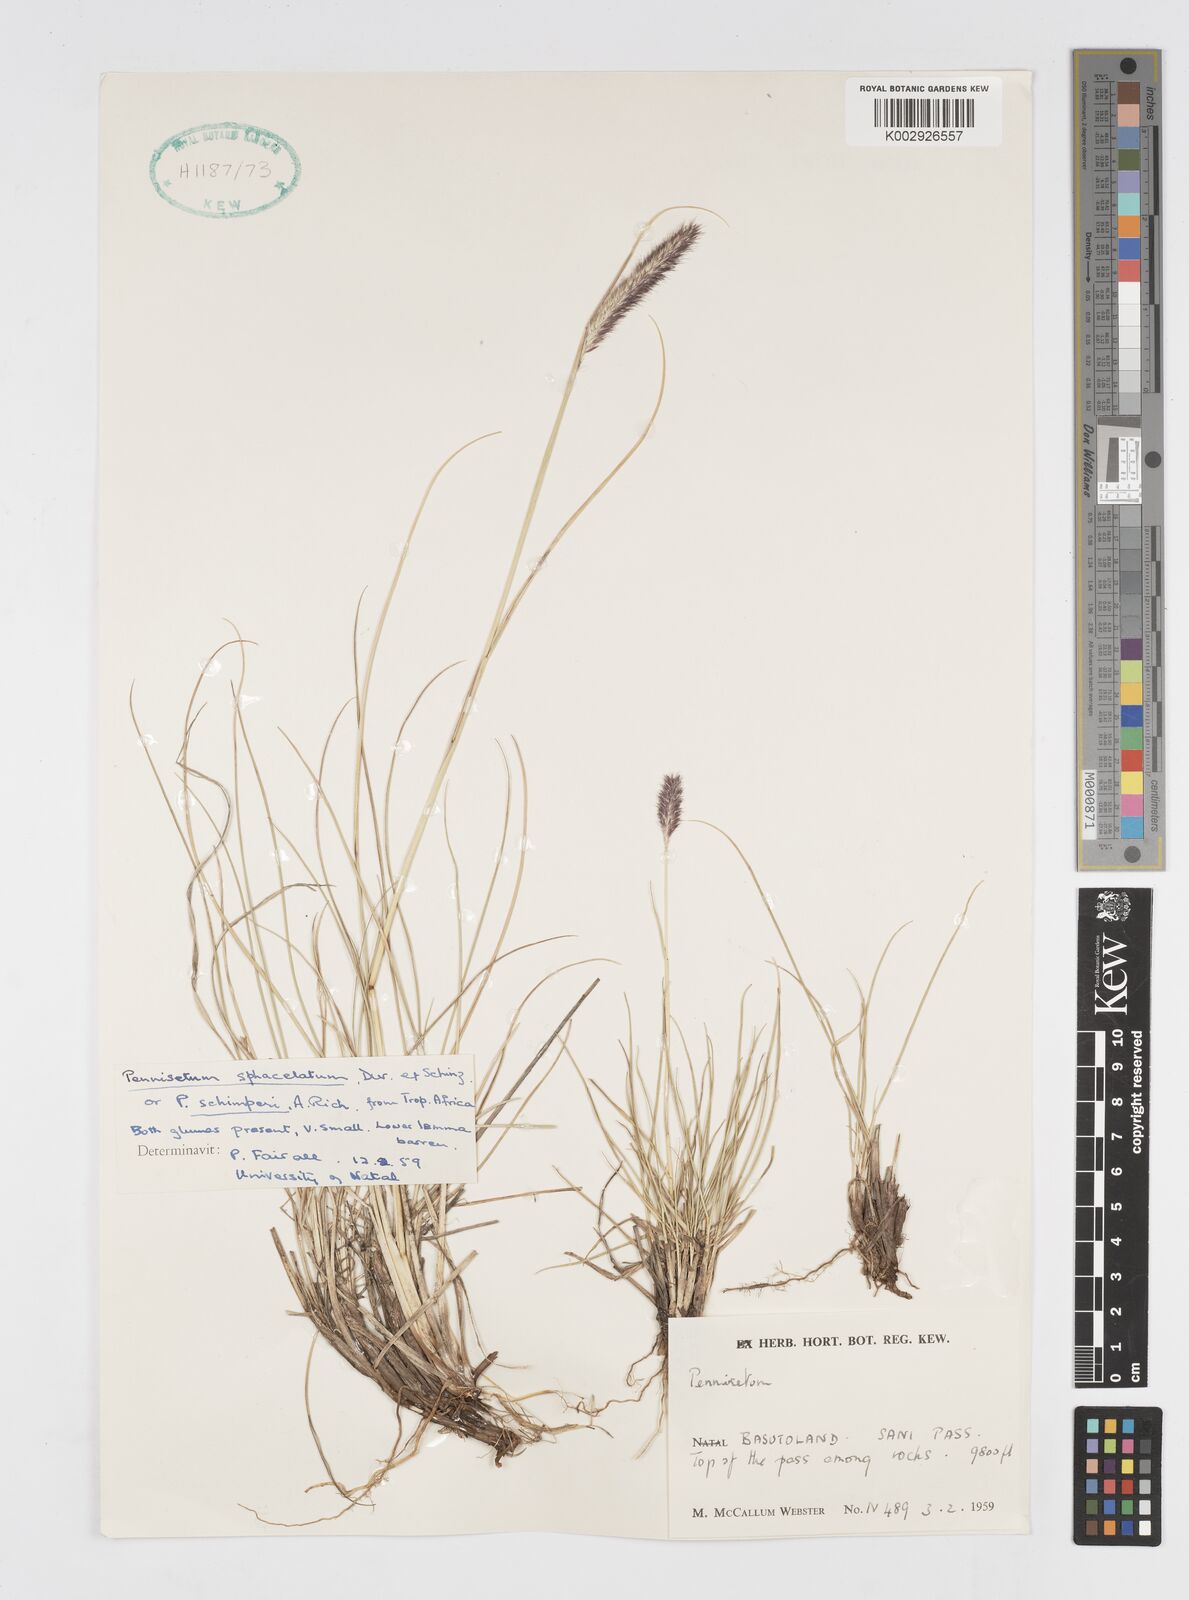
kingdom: Plantae
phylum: Tracheophyta
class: Liliopsida
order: Poales
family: Poaceae
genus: Cenchrus
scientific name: Cenchrus sphacelatus
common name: Bulgras
